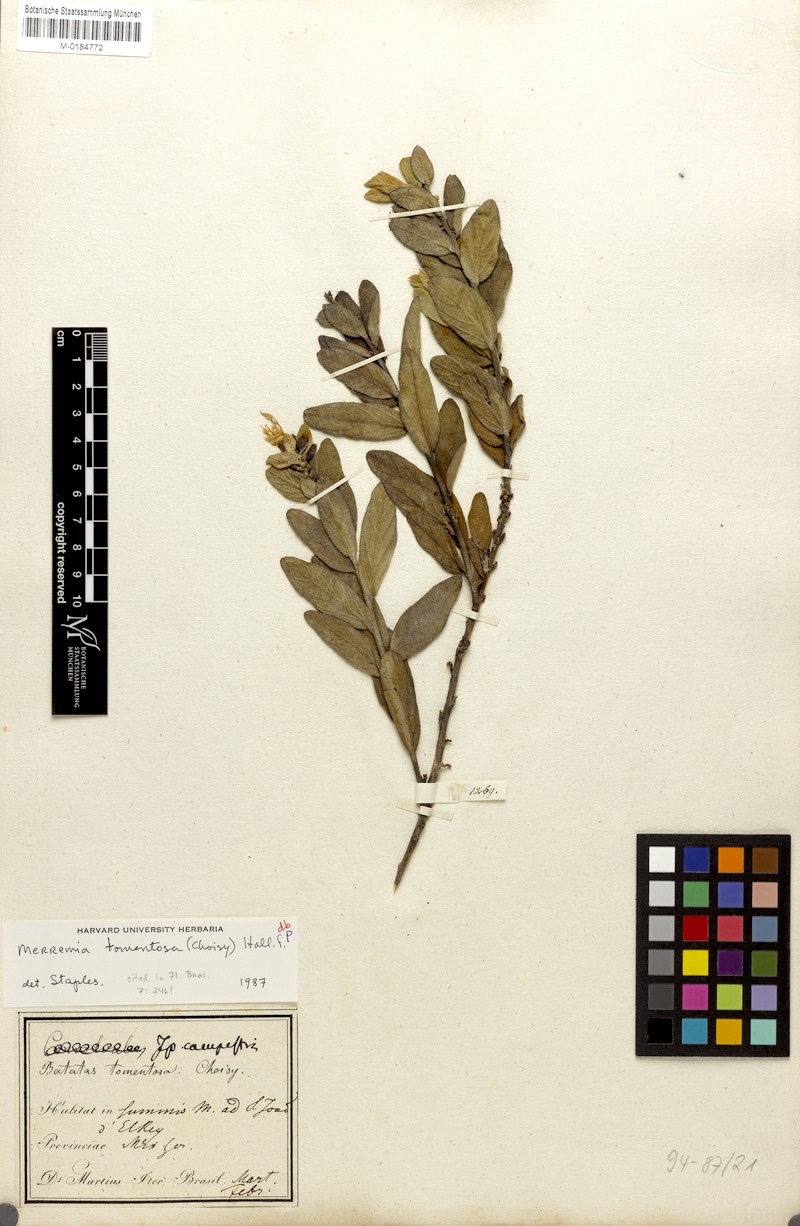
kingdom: Plantae
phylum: Tracheophyta
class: Magnoliopsida
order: Solanales
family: Convolvulaceae
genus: Distimake
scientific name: Distimake tomentosus
